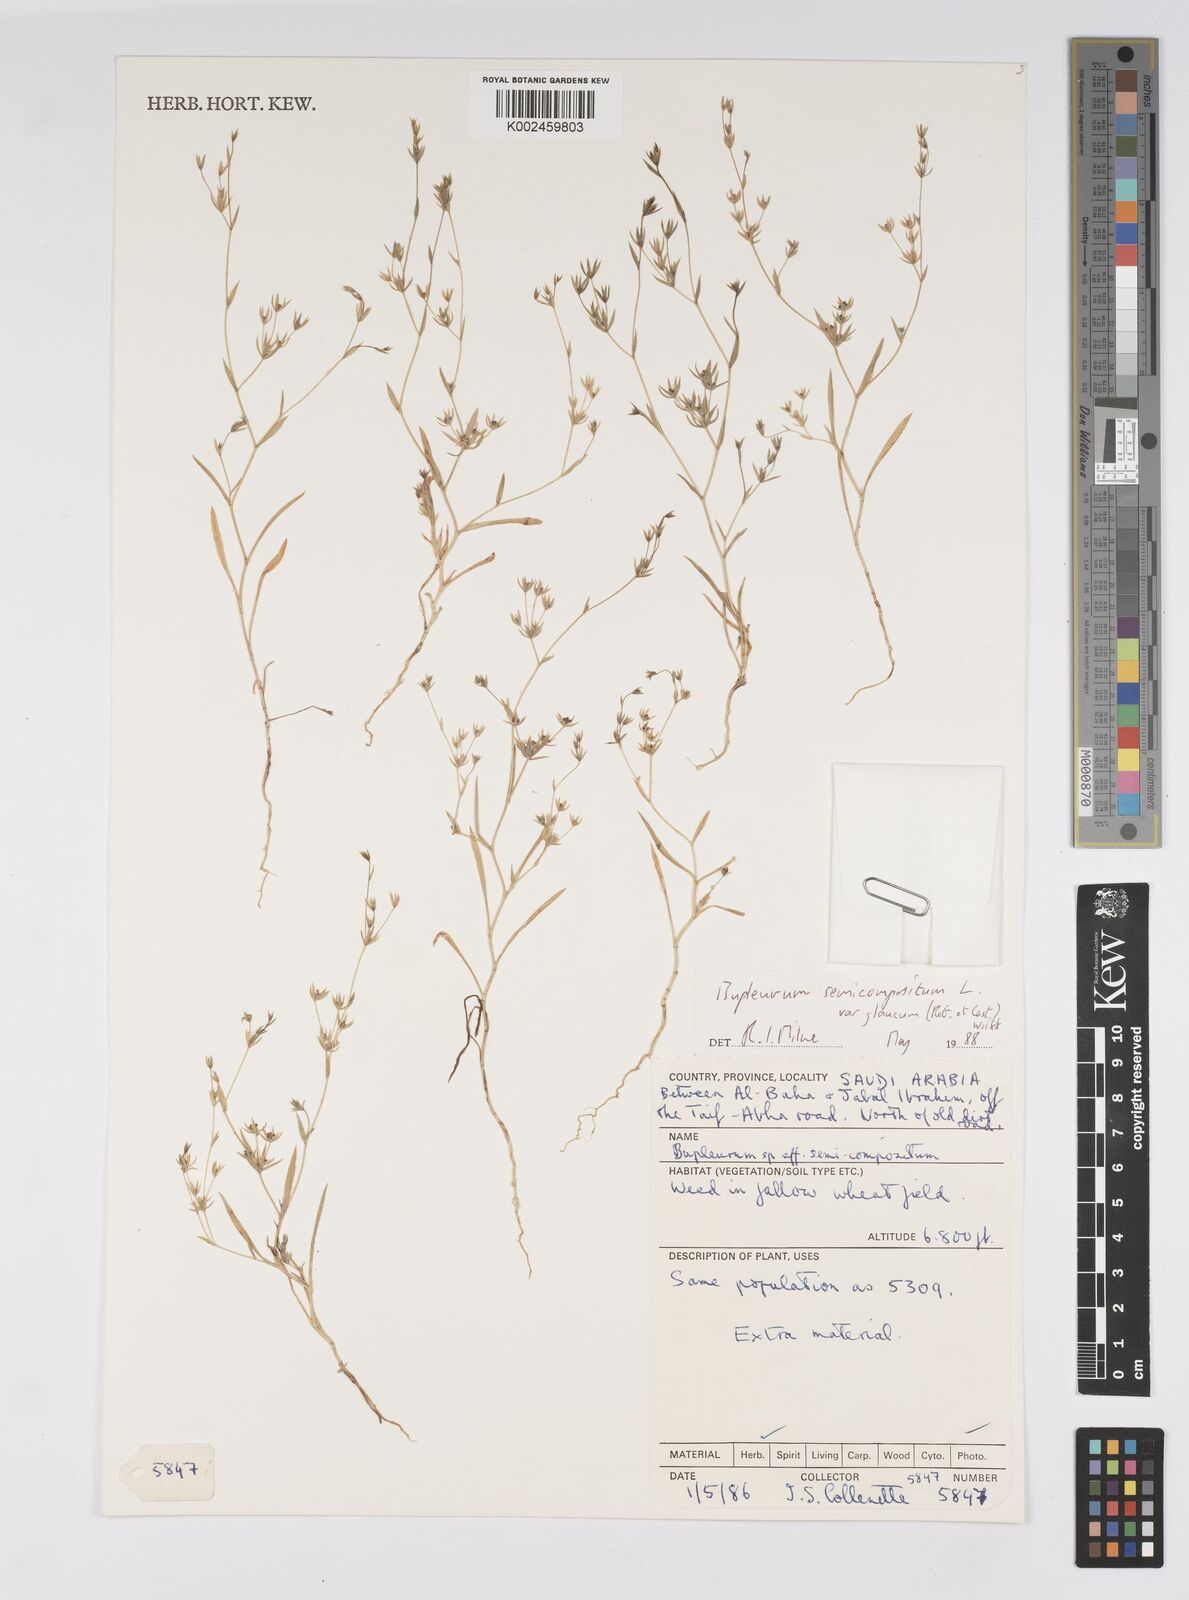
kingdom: Plantae
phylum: Tracheophyta
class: Magnoliopsida
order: Apiales
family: Apiaceae
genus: Bupleurum
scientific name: Bupleurum semicompositum
